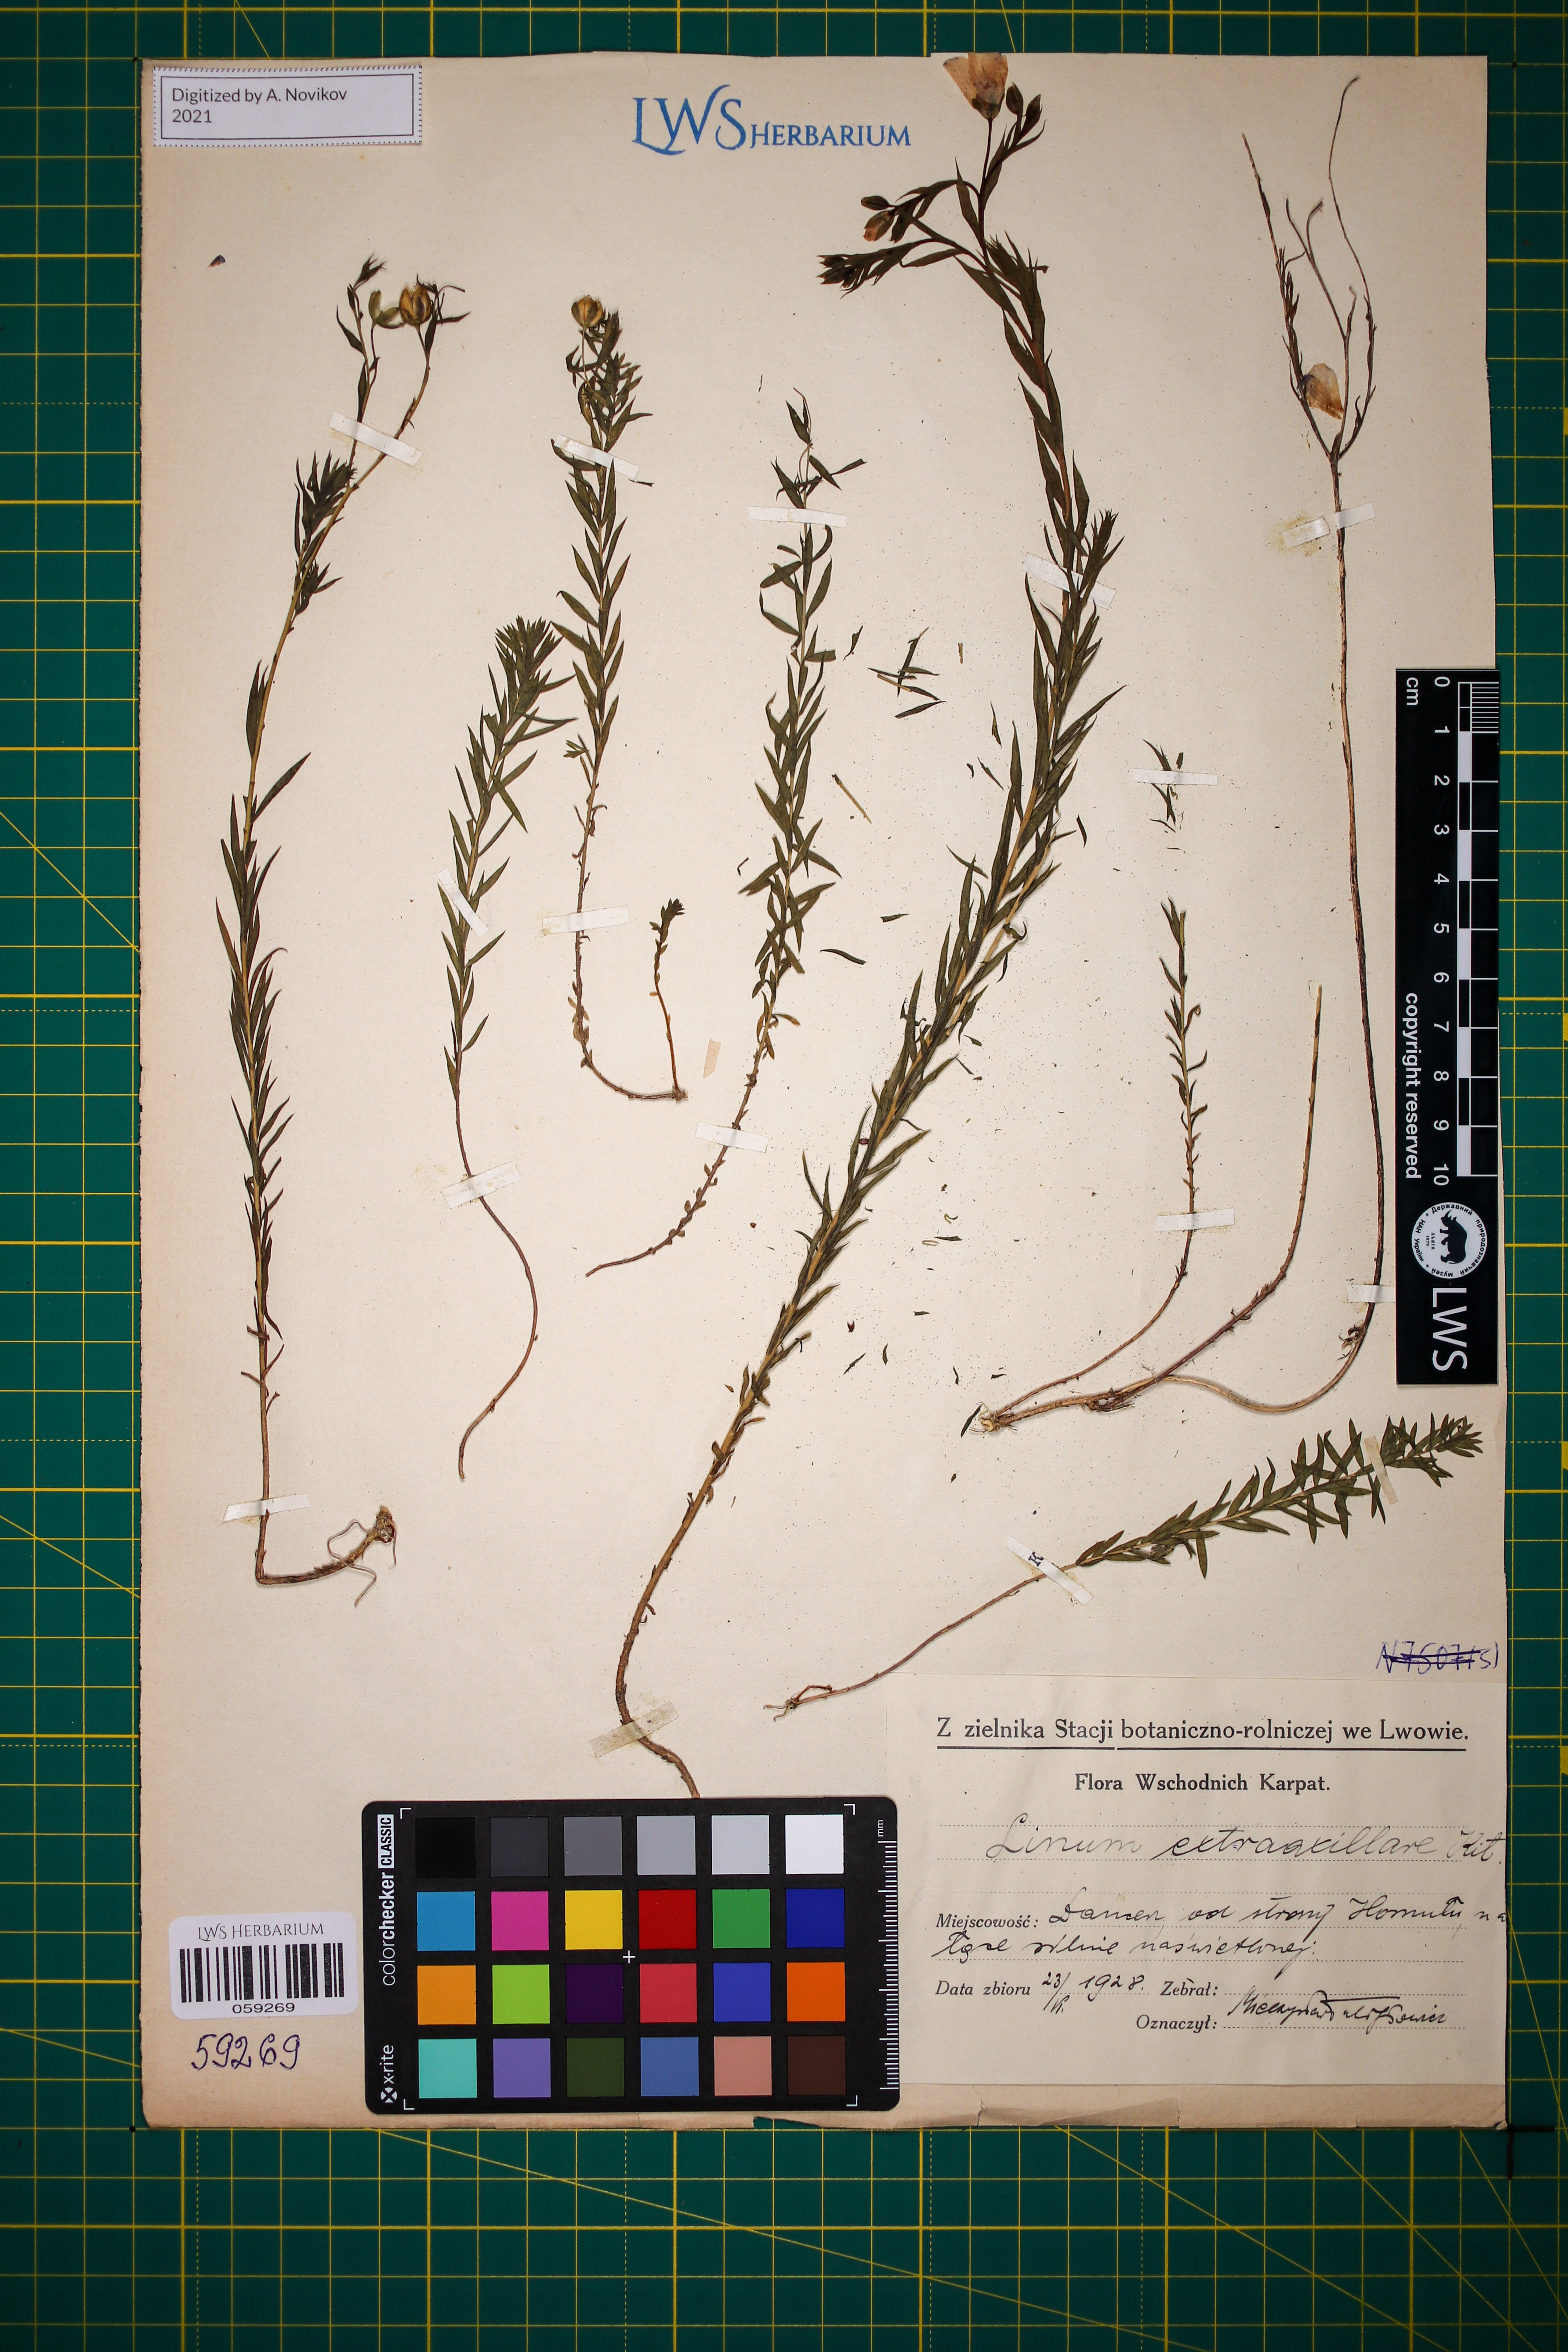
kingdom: Plantae
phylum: Tracheophyta
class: Magnoliopsida
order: Malpighiales
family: Linaceae
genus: Linum
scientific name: Linum perenne
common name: Blue flax
